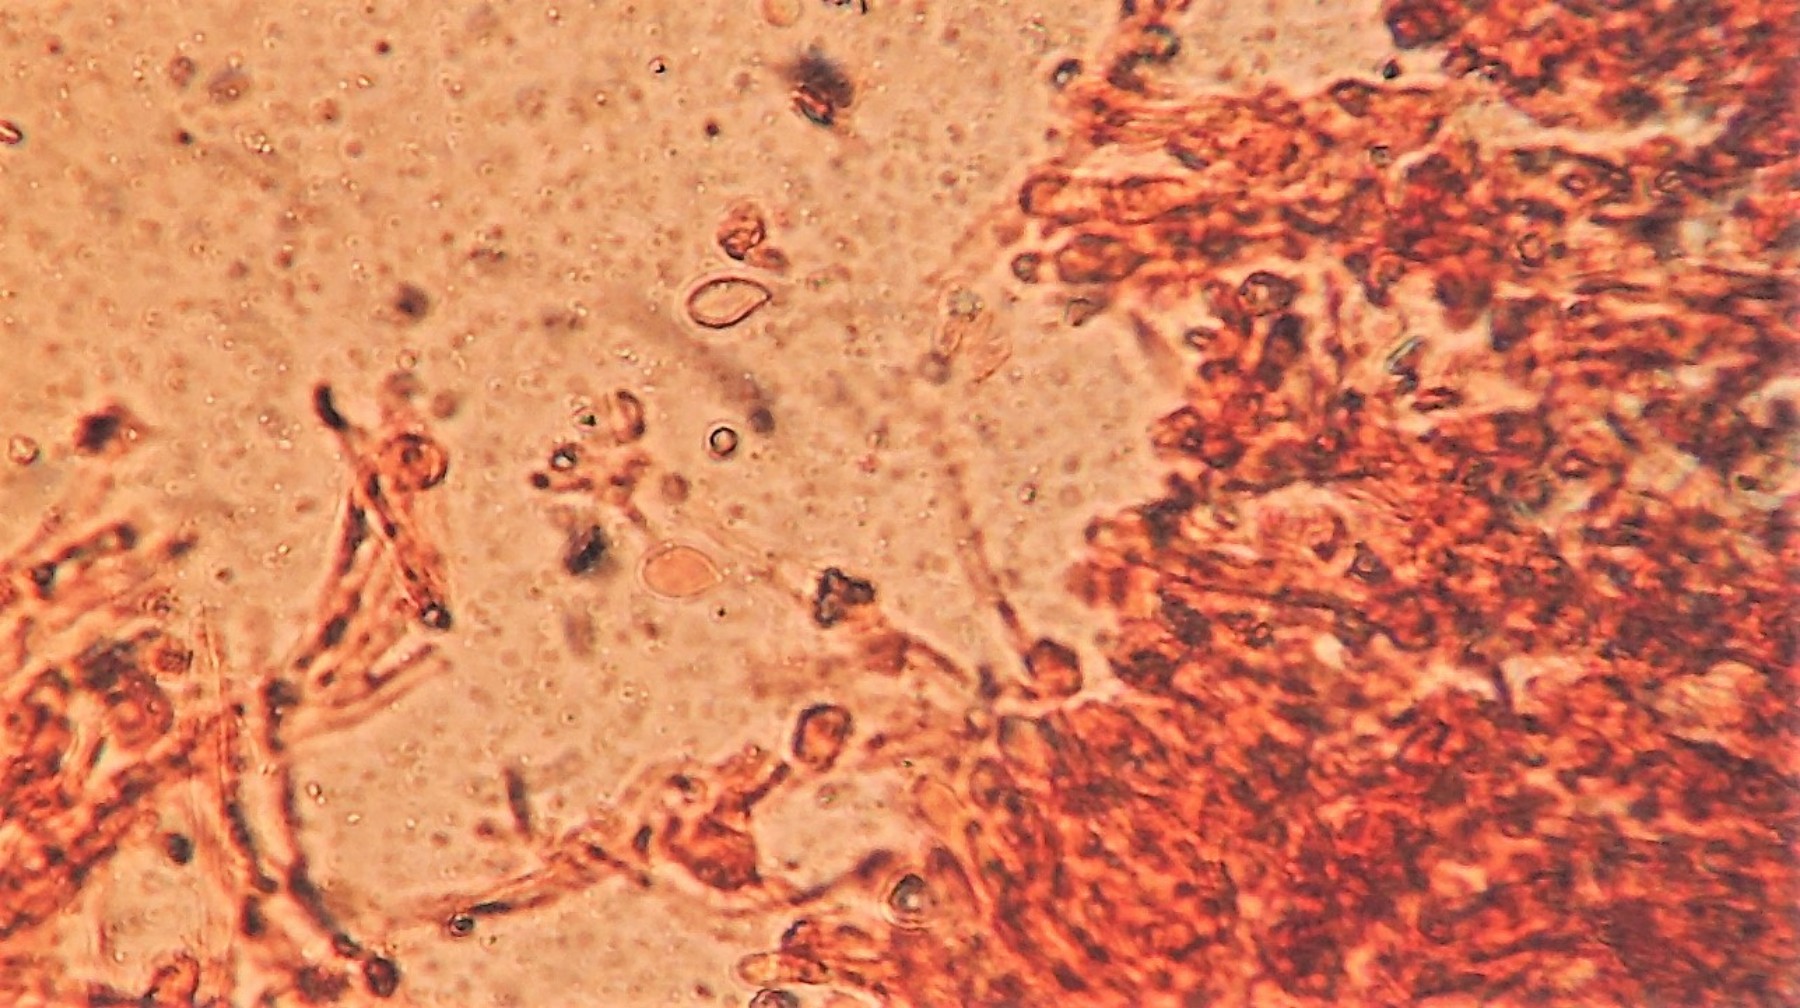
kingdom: Fungi
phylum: Basidiomycota
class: Agaricomycetes
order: Agaricales
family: Physalacriaceae
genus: Cylindrobasidium
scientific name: Cylindrobasidium evolvens
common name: sprækkehinde
